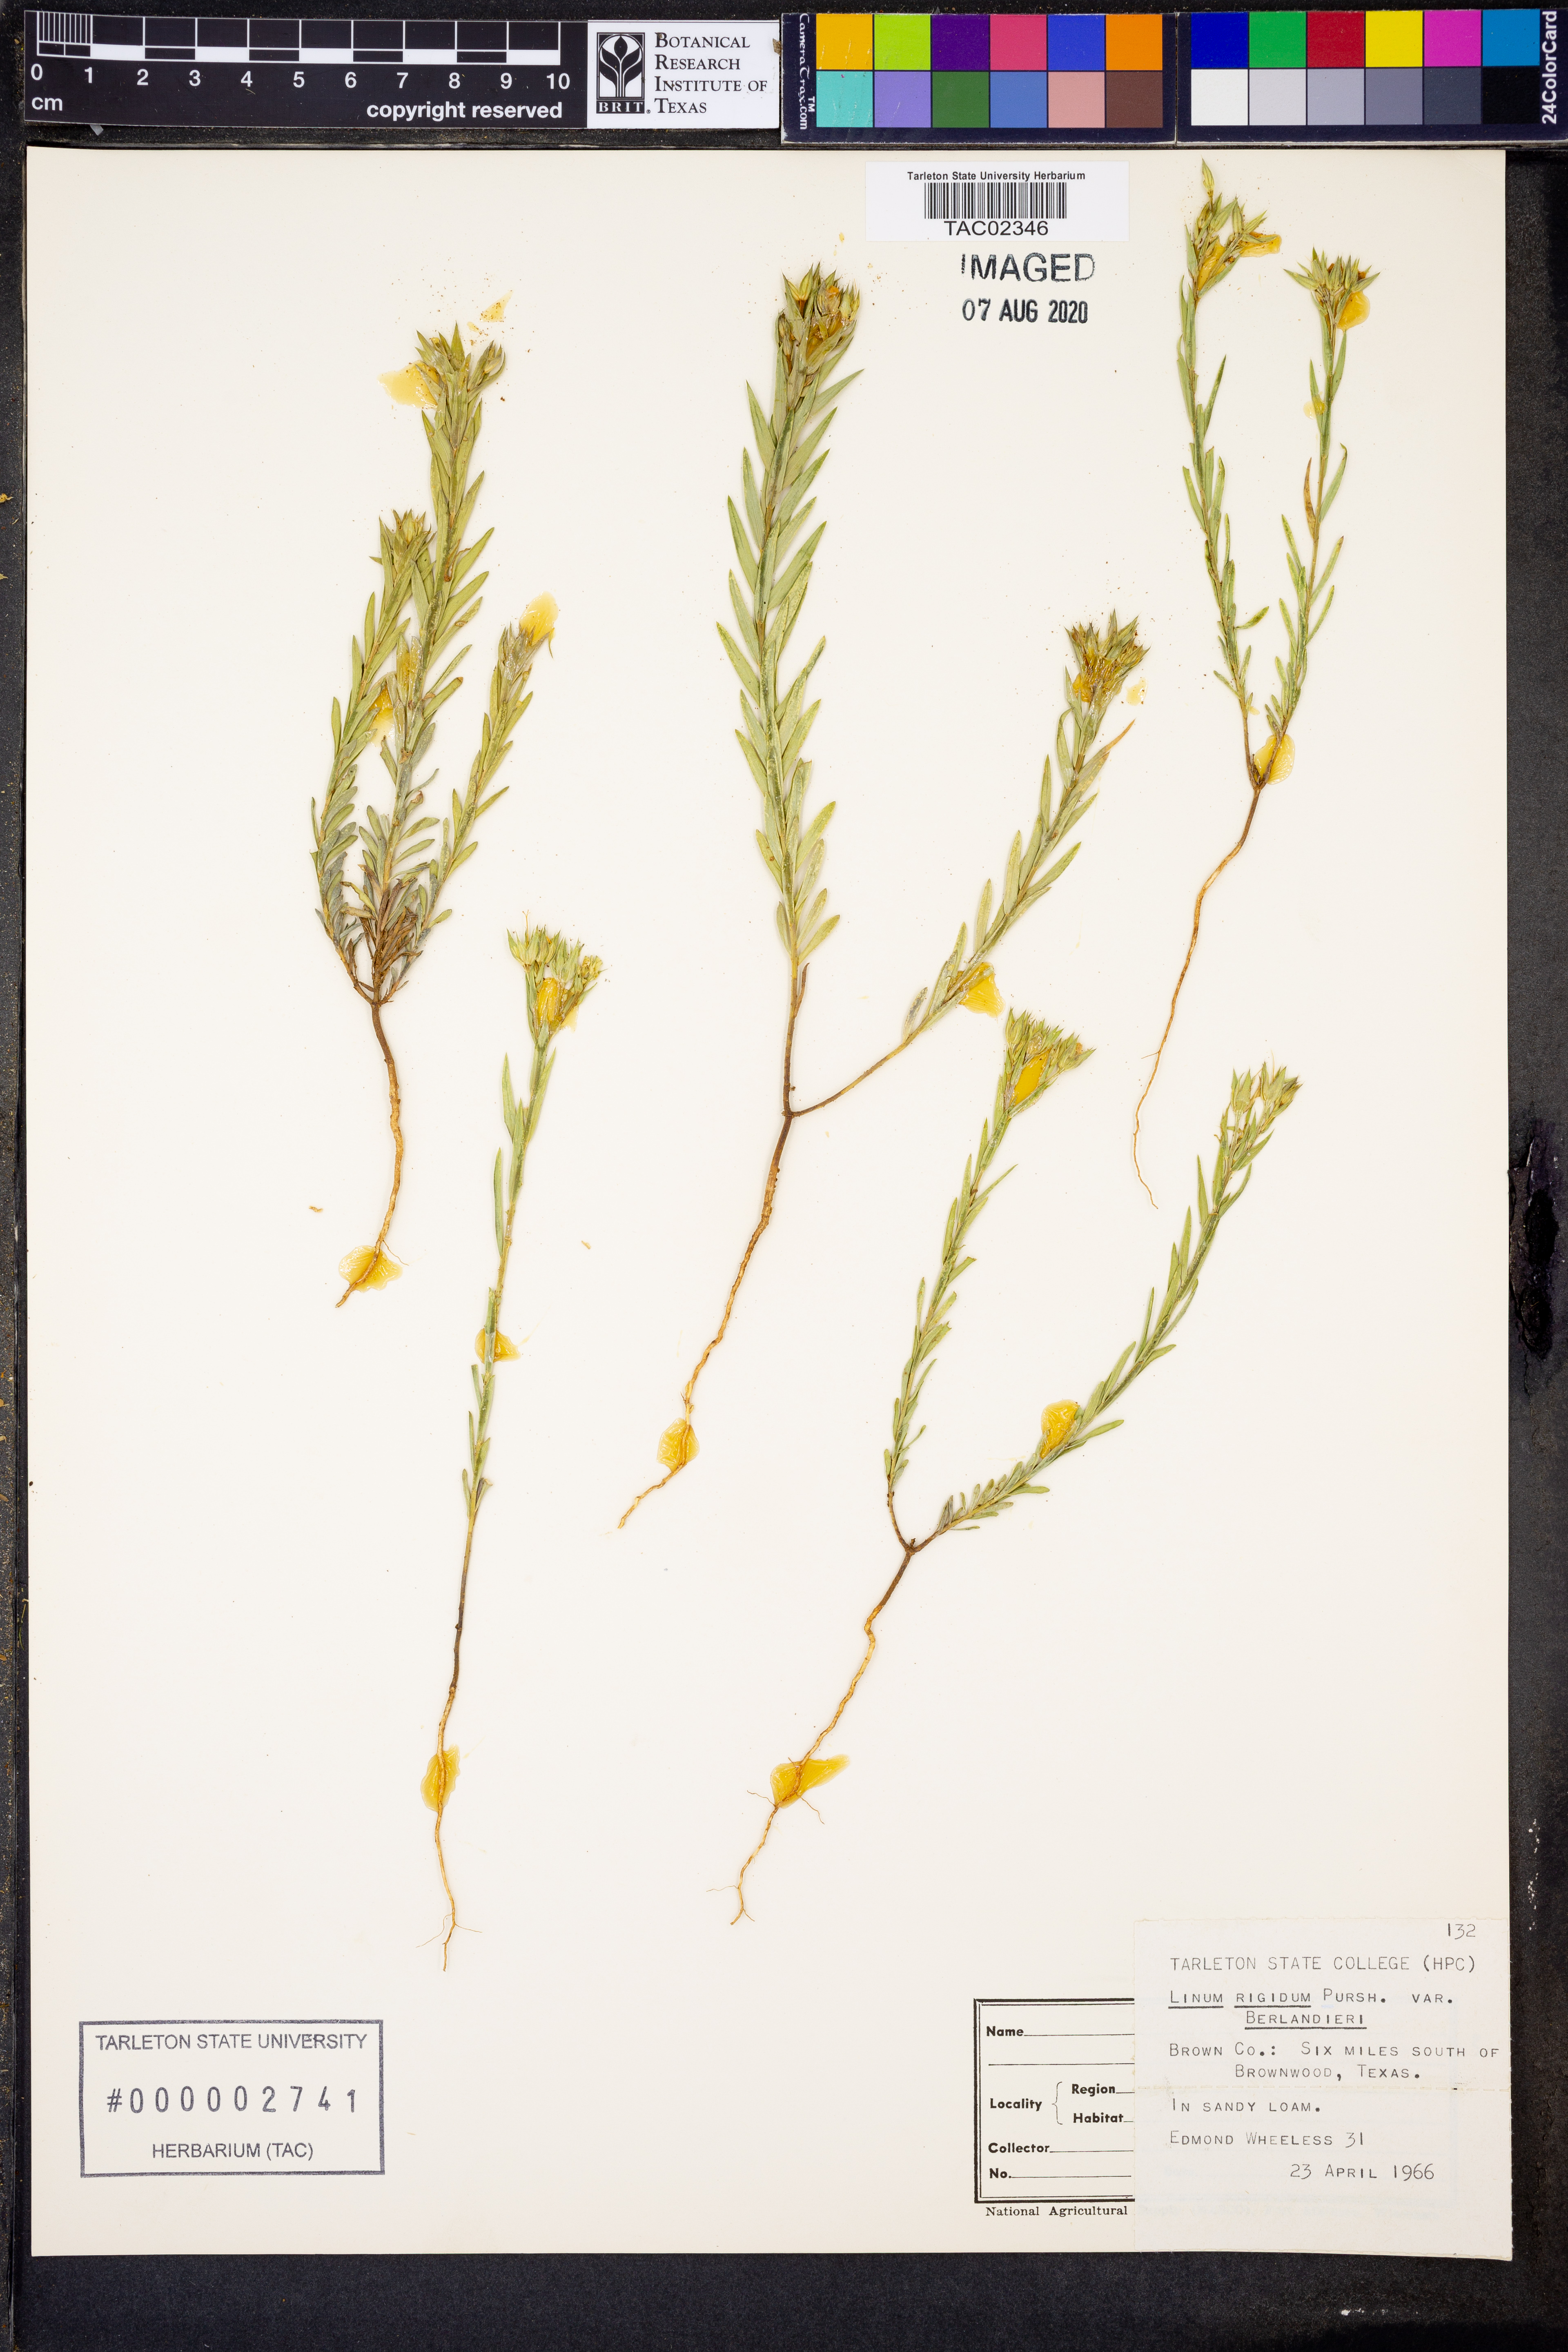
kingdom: Plantae
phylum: Tracheophyta
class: Magnoliopsida
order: Malpighiales
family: Linaceae
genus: Linum
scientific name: Linum berlandieri
